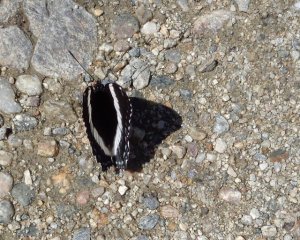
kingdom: Animalia
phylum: Arthropoda
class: Insecta
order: Lepidoptera
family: Nymphalidae
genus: Limenitis
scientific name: Limenitis arthemis
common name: Red-spotted Admiral
